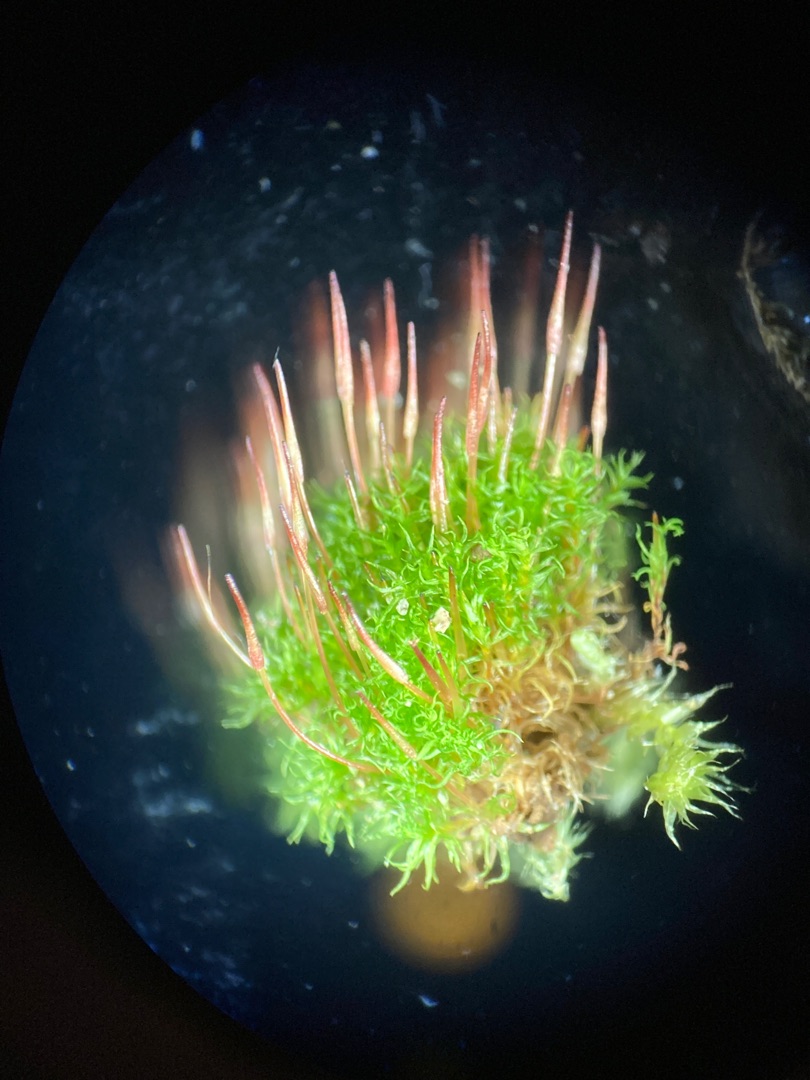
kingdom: Plantae
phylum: Bryophyta
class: Bryopsida
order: Dicranales
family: Ditrichaceae
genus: Ceratodon
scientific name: Ceratodon purpureus
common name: Rød horntand
